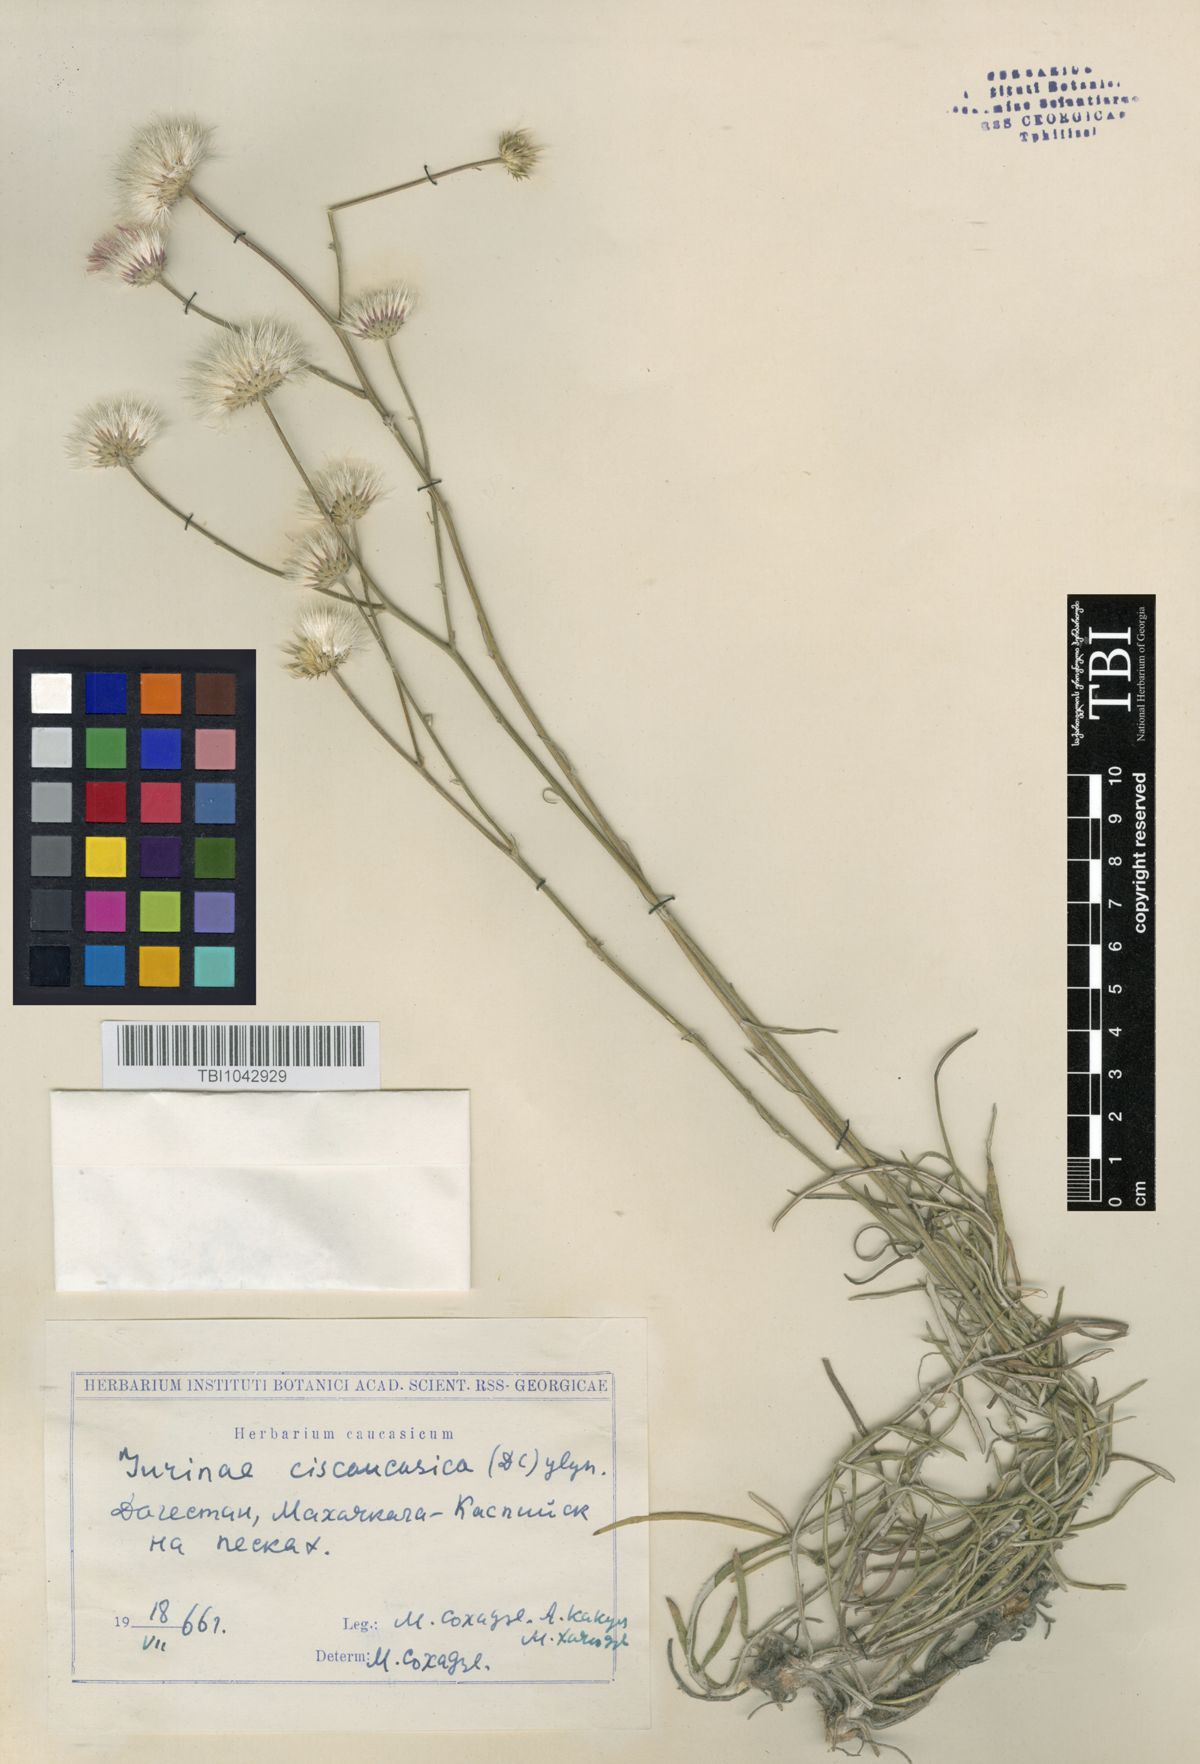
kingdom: Plantae
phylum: Tracheophyta
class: Magnoliopsida
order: Asterales
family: Asteraceae
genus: Jurinea
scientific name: Jurinea ciscaucasica
